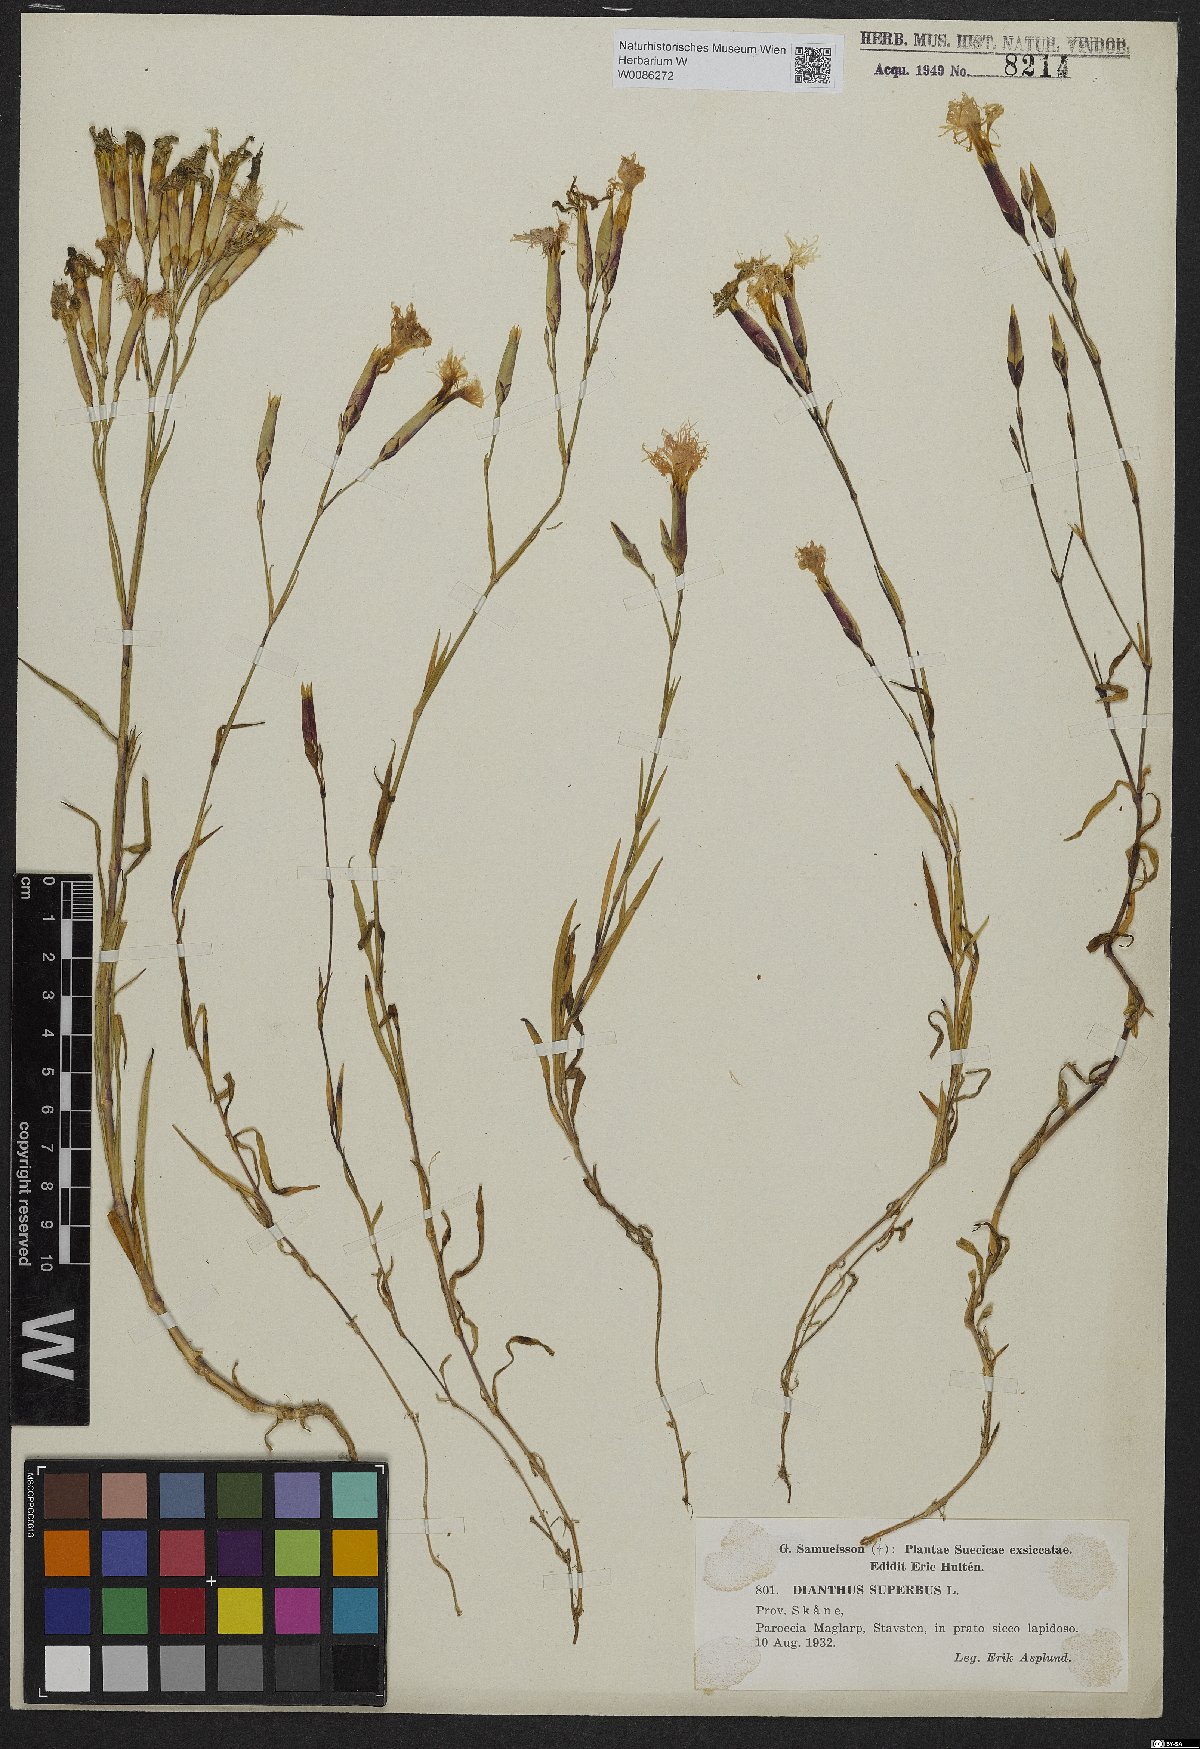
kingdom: Plantae
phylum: Tracheophyta
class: Magnoliopsida
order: Caryophyllales
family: Caryophyllaceae
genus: Dianthus
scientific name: Dianthus superbus
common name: Fringed pink
